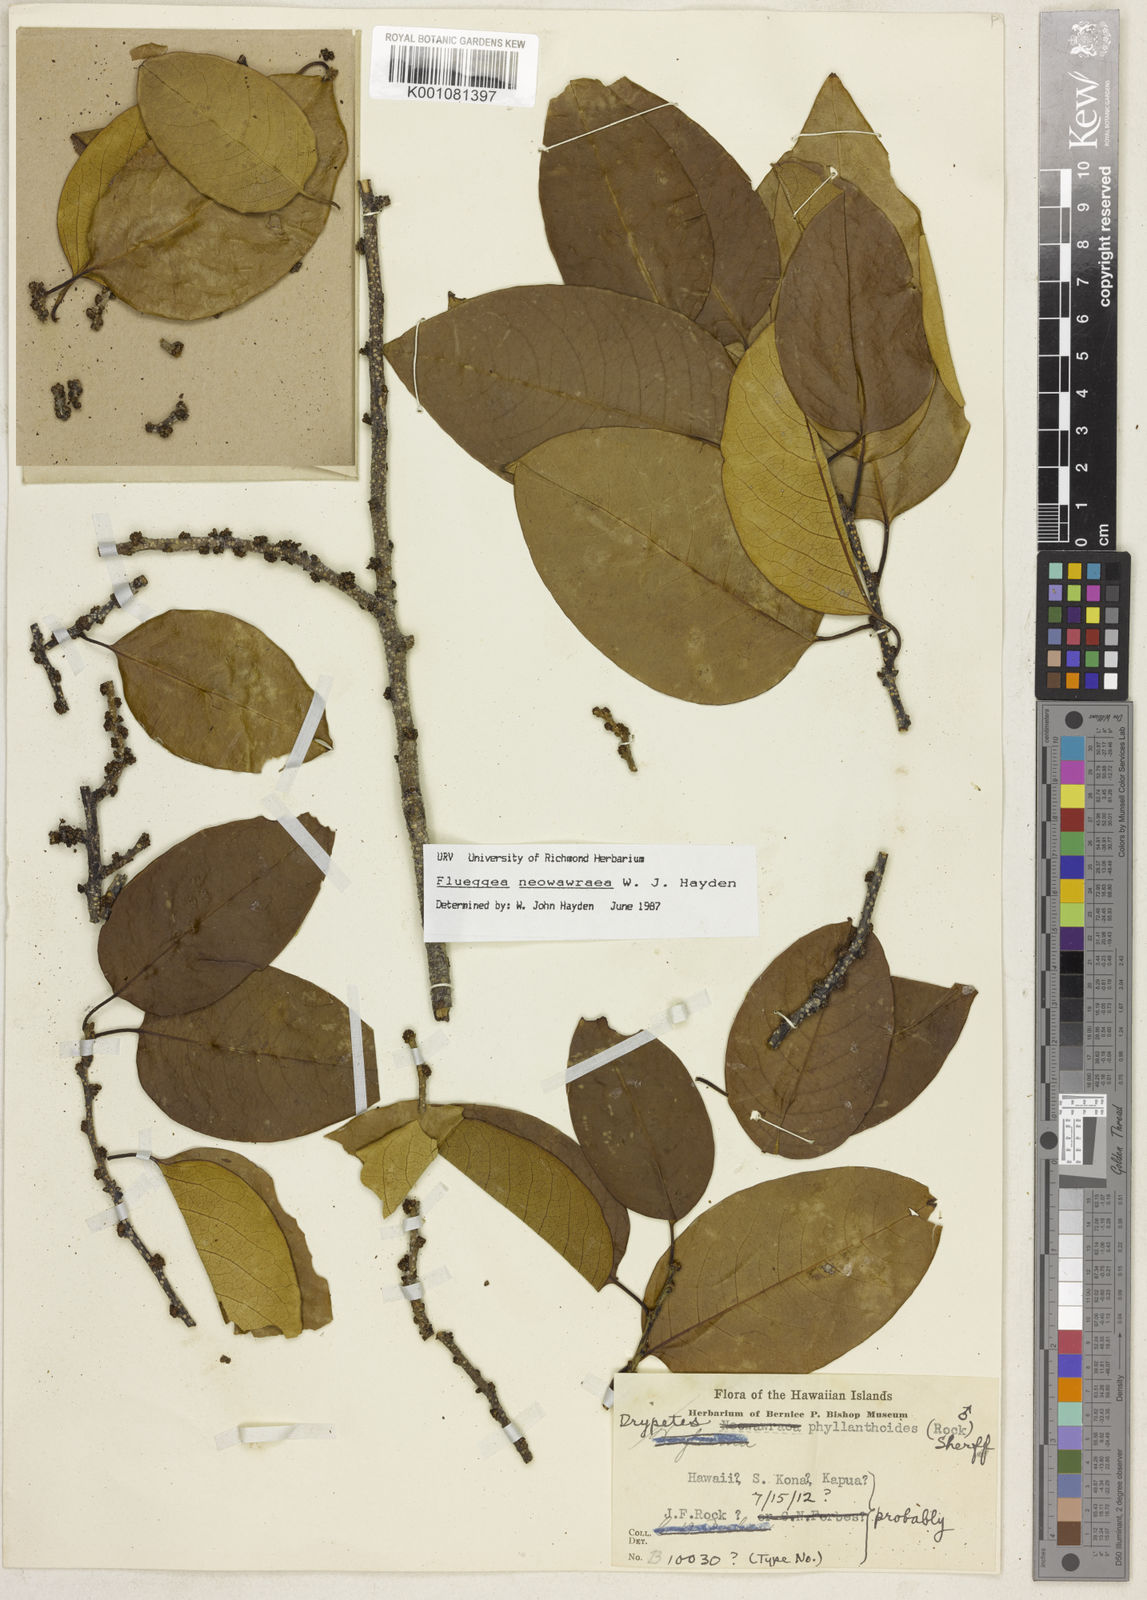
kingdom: Plantae
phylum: Tracheophyta
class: Magnoliopsida
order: Malpighiales
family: Phyllanthaceae
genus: Flueggea
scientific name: Flueggea neowawraea
